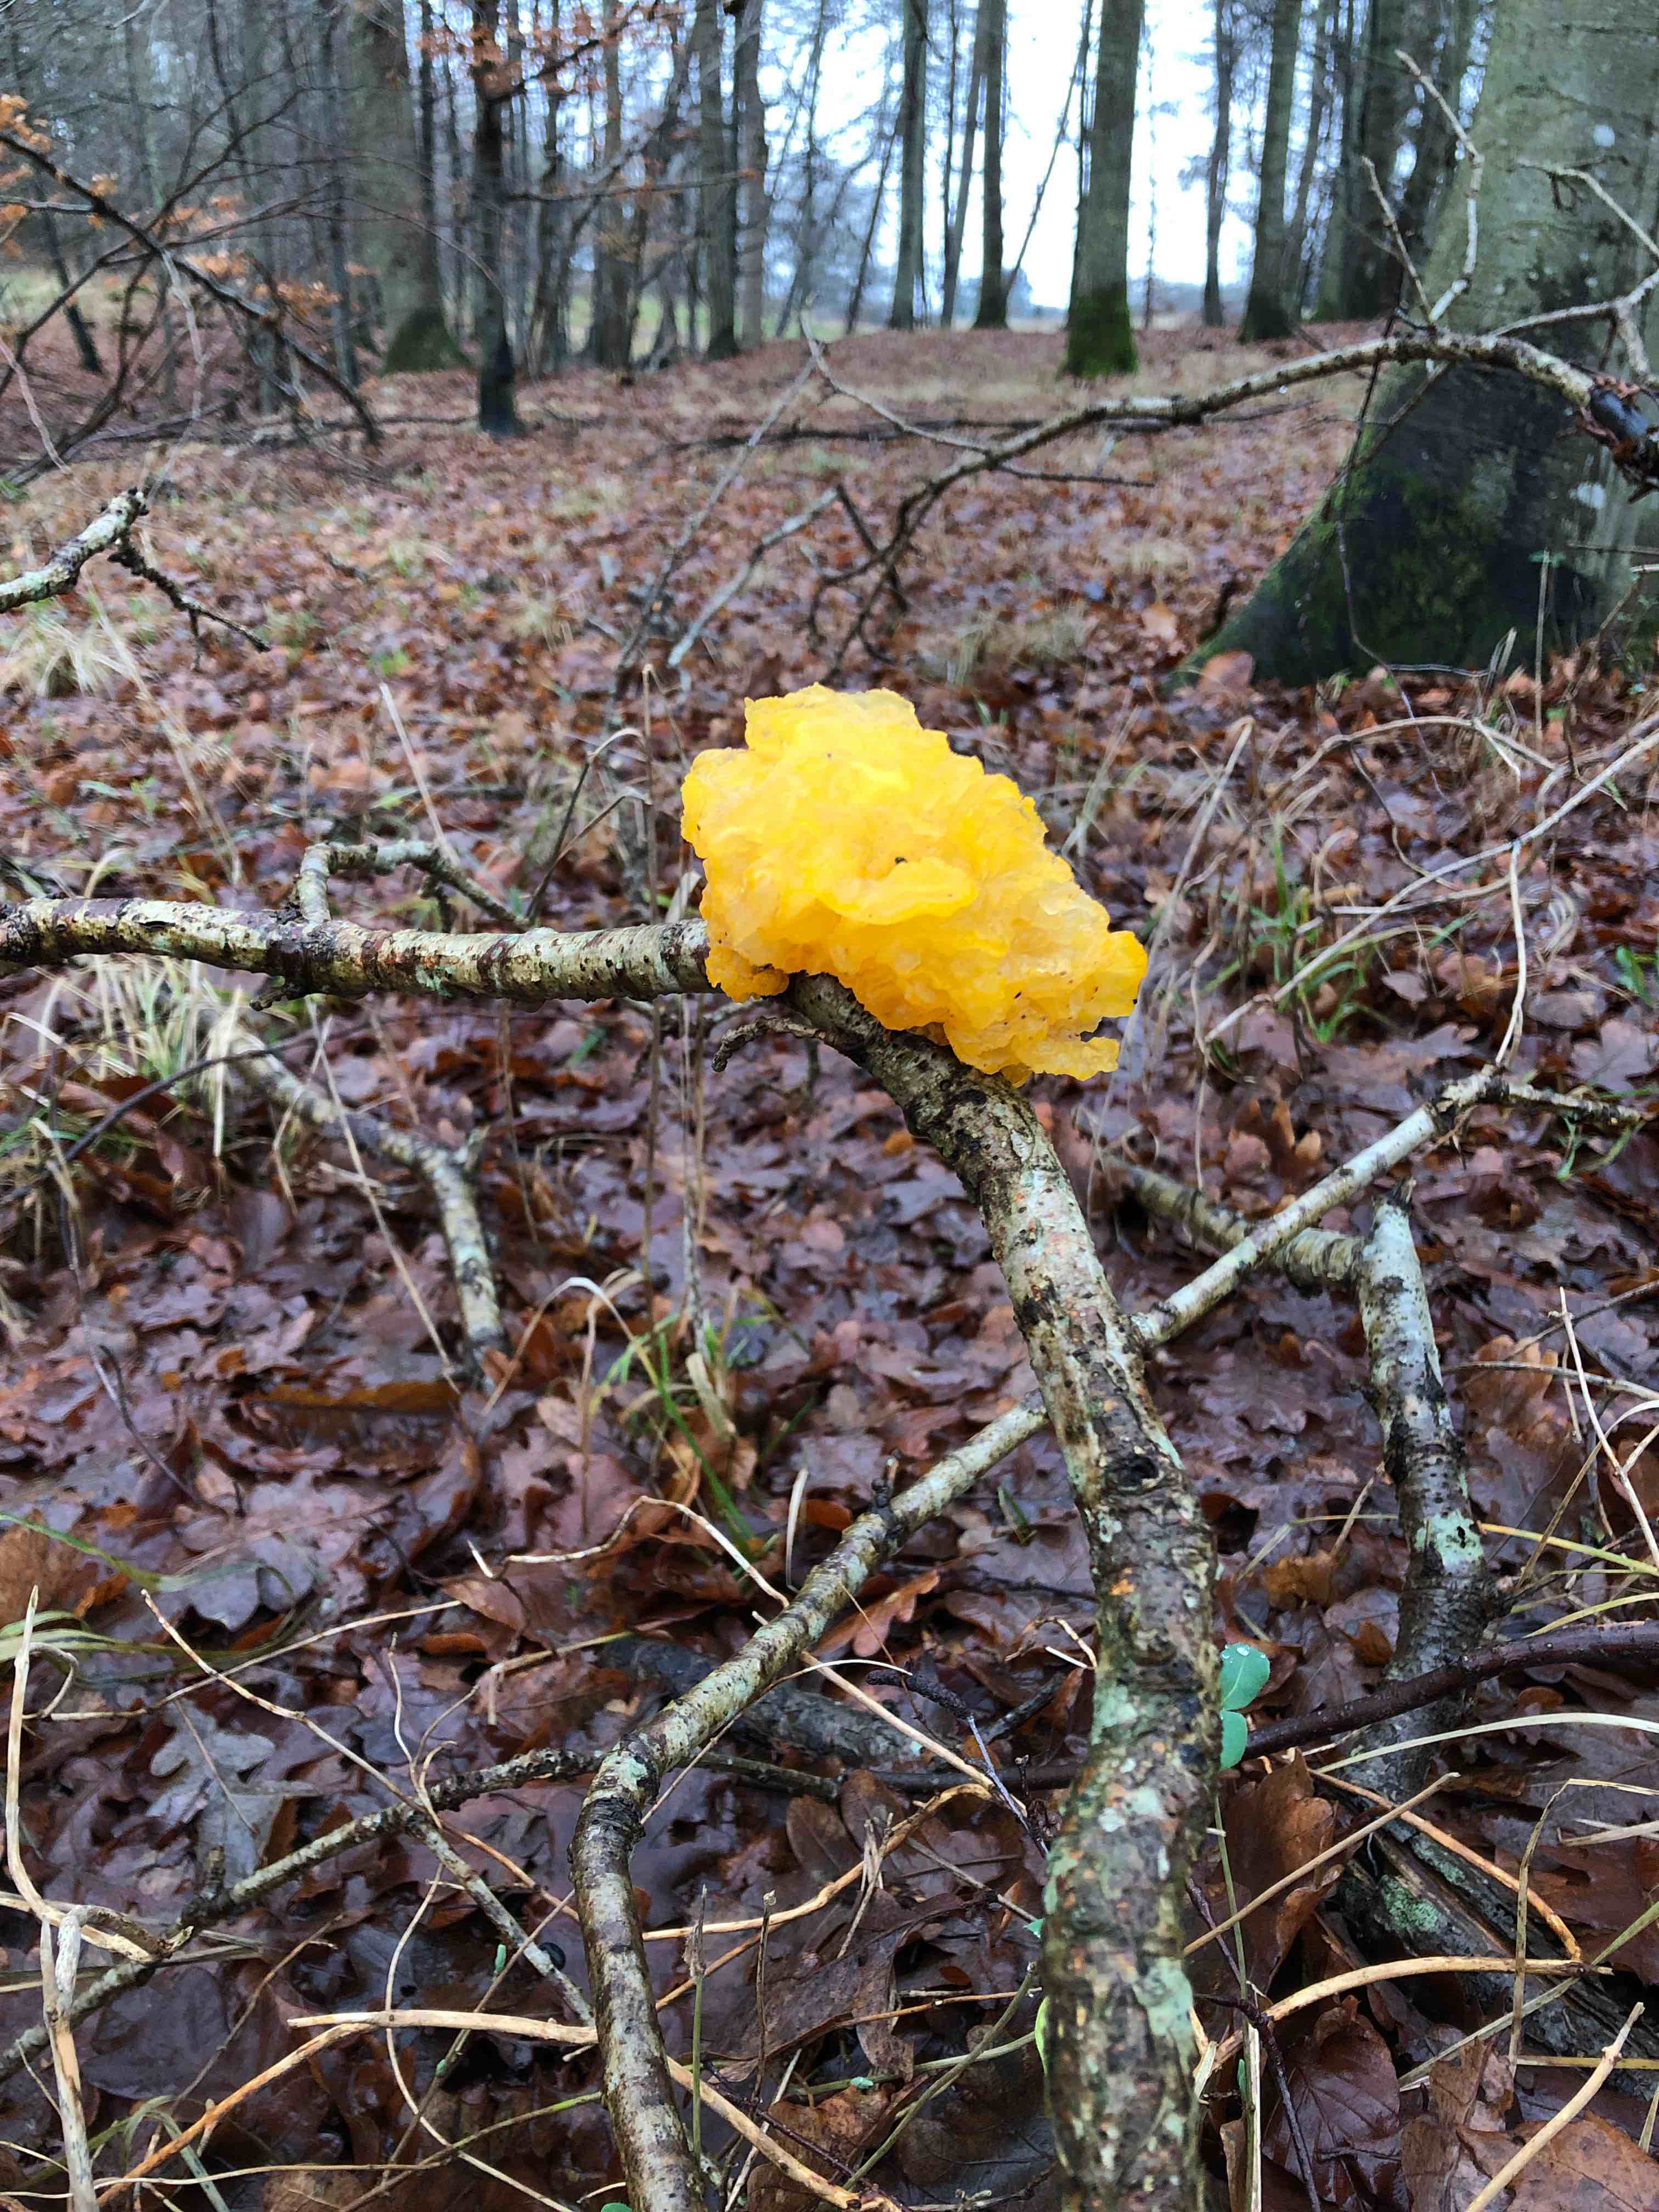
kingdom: Fungi
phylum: Basidiomycota
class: Tremellomycetes
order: Tremellales
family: Tremellaceae
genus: Tremella
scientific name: Tremella mesenterica
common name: gul bævresvamp
